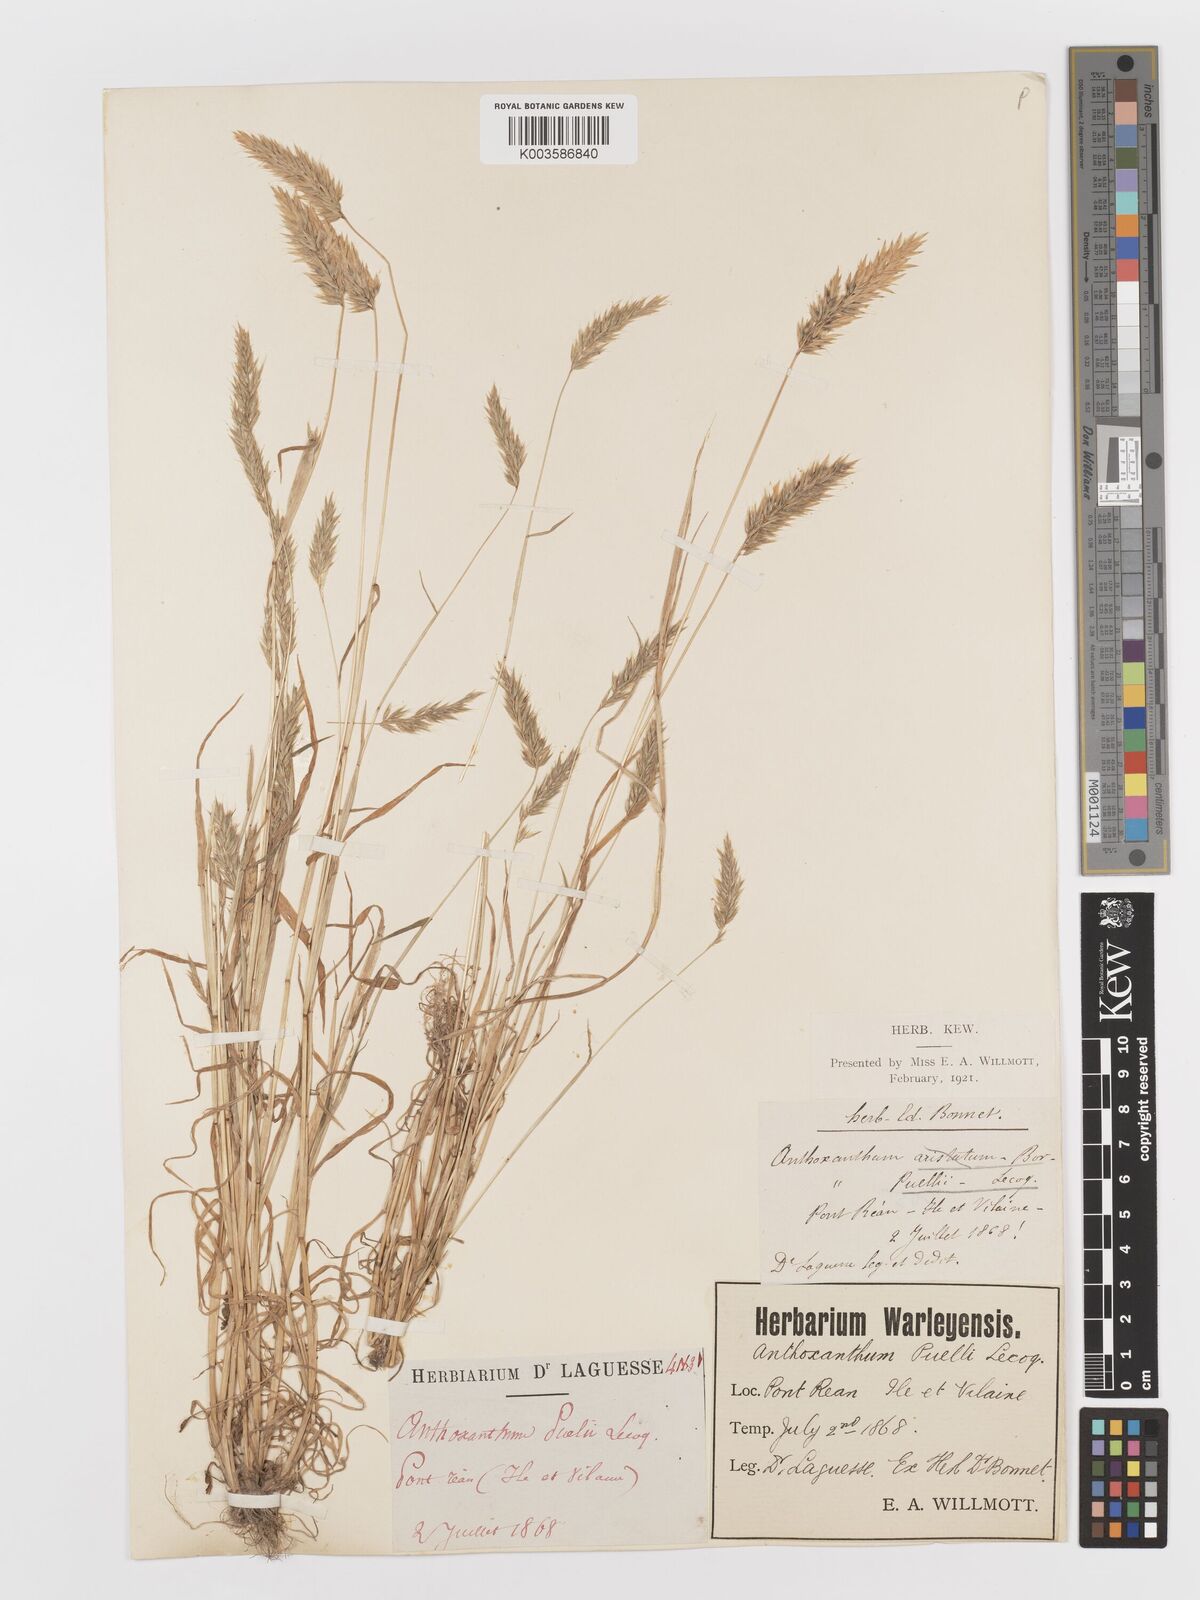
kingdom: Plantae
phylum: Tracheophyta
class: Liliopsida
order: Poales
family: Poaceae
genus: Anthoxanthum
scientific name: Anthoxanthum
